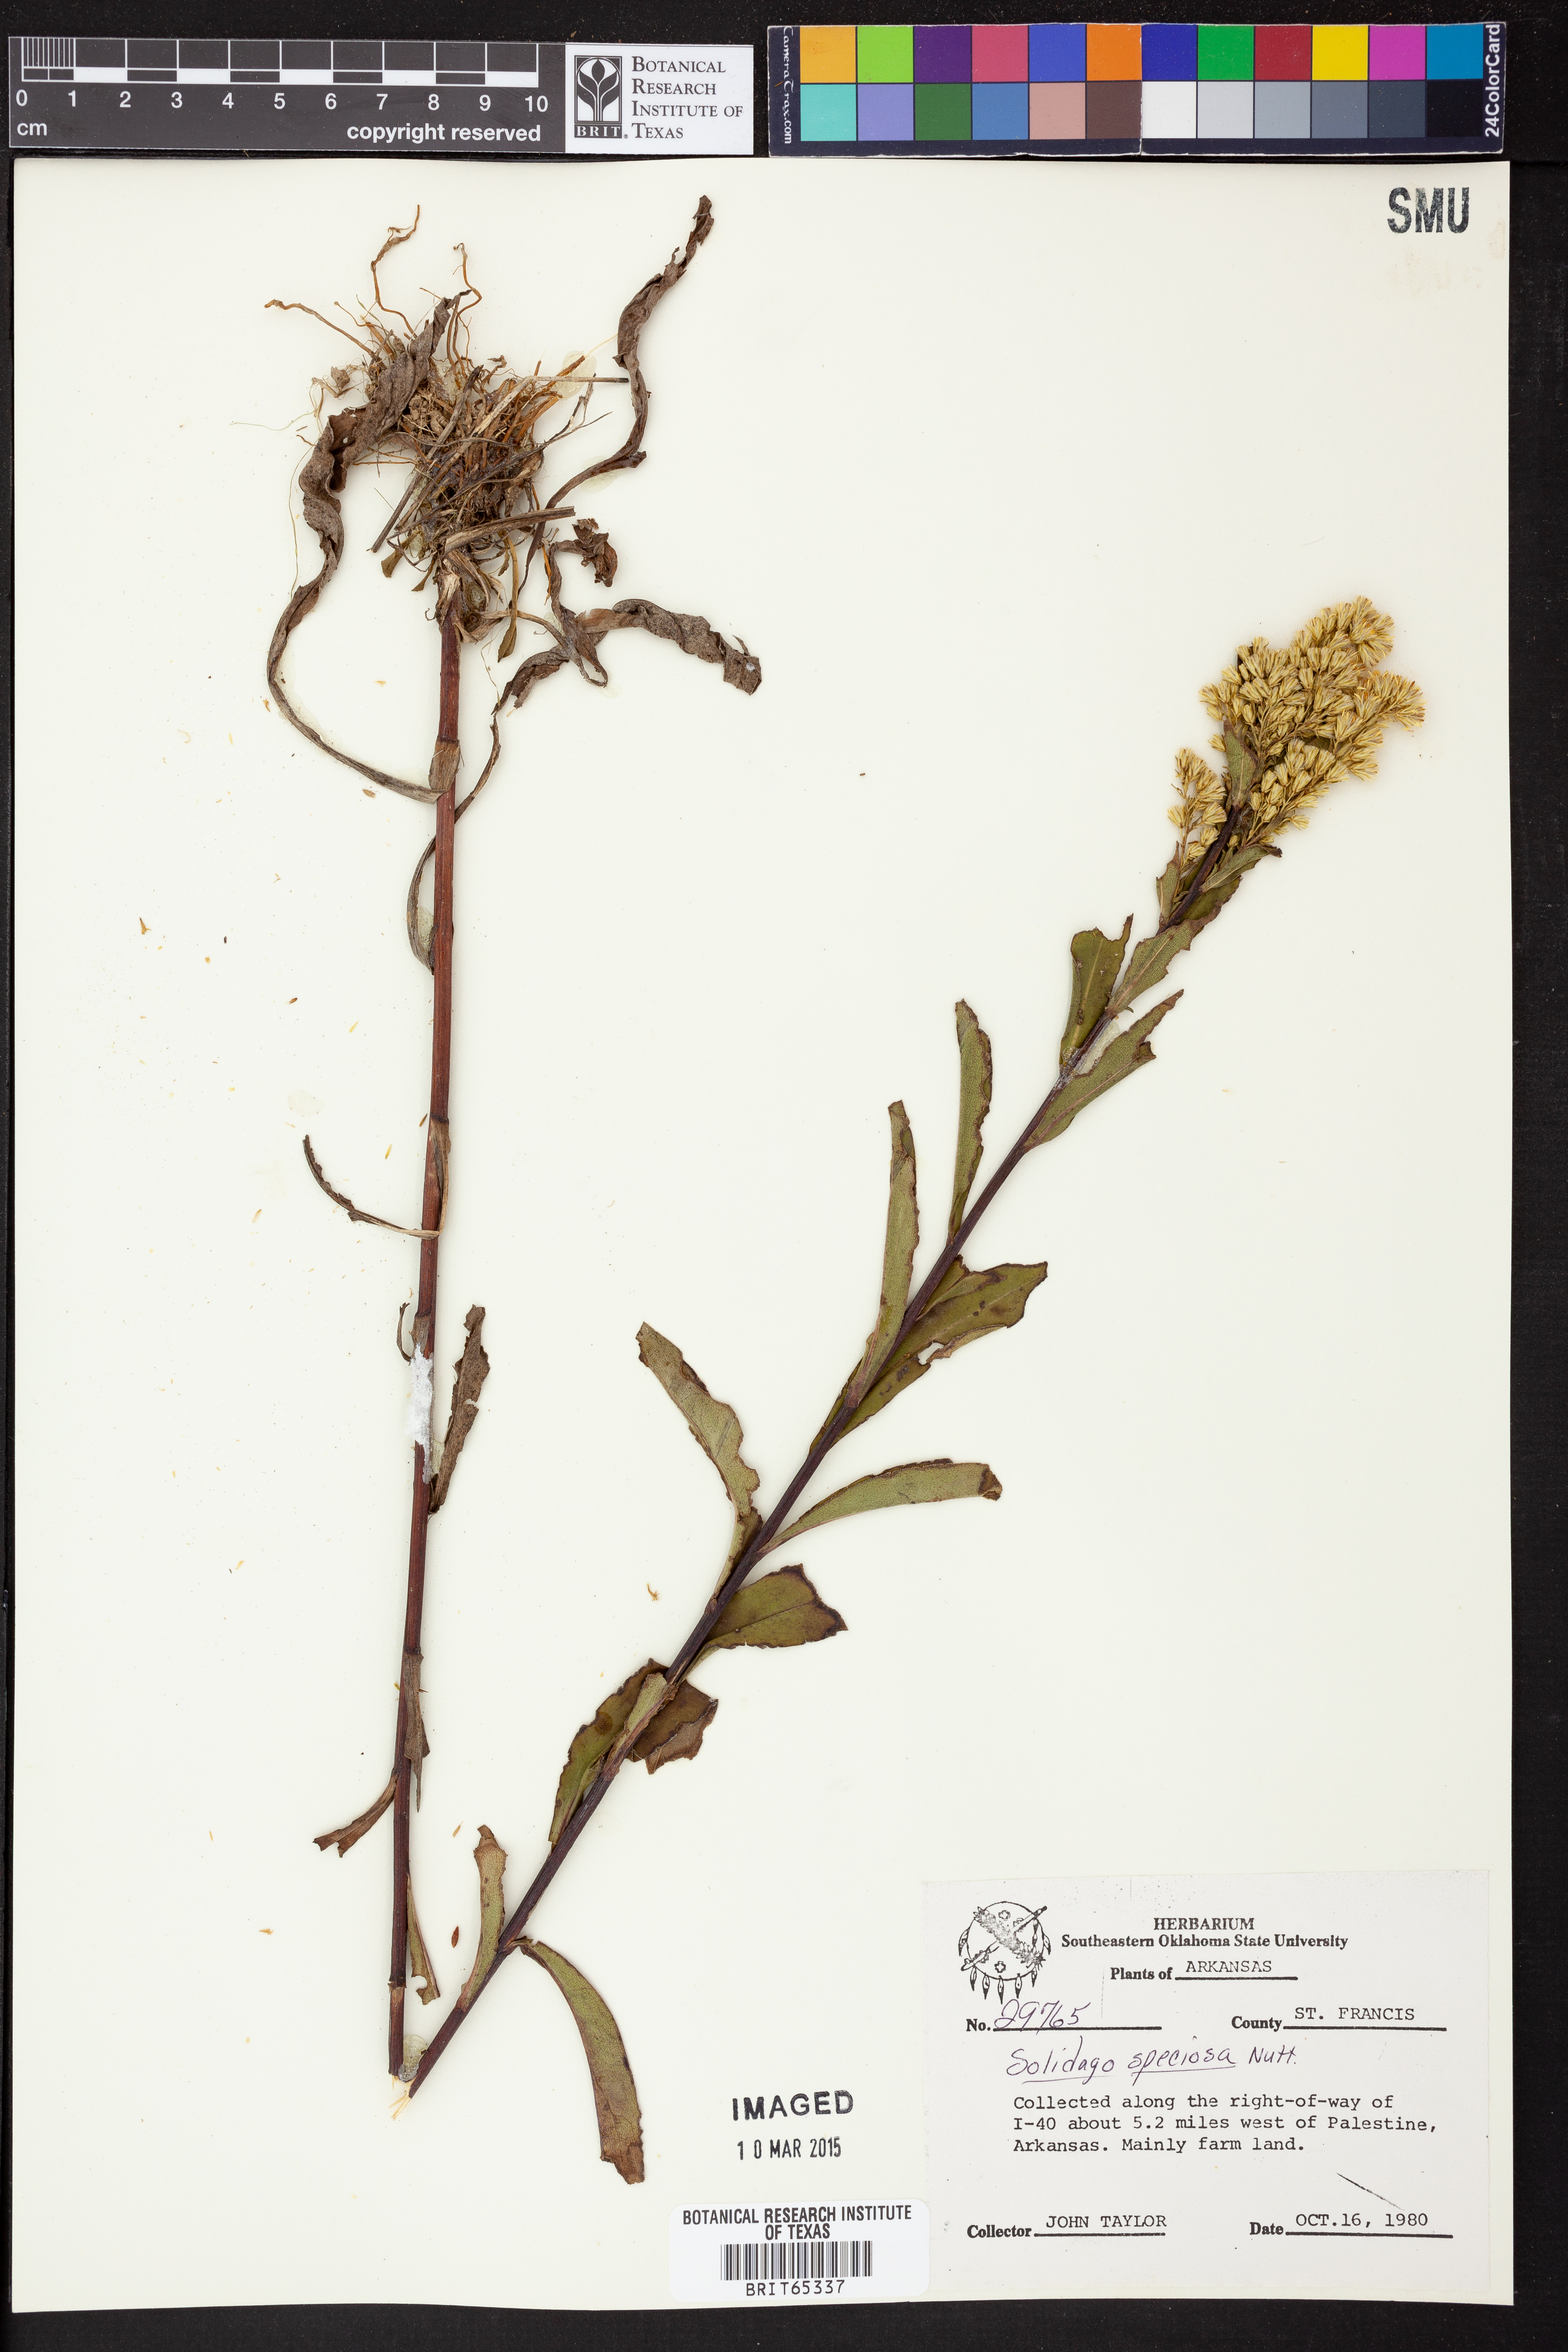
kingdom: Plantae
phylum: Tracheophyta
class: Magnoliopsida
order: Asterales
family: Asteraceae
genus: Solidago
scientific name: Solidago speciosa
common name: Showy goldenrod
